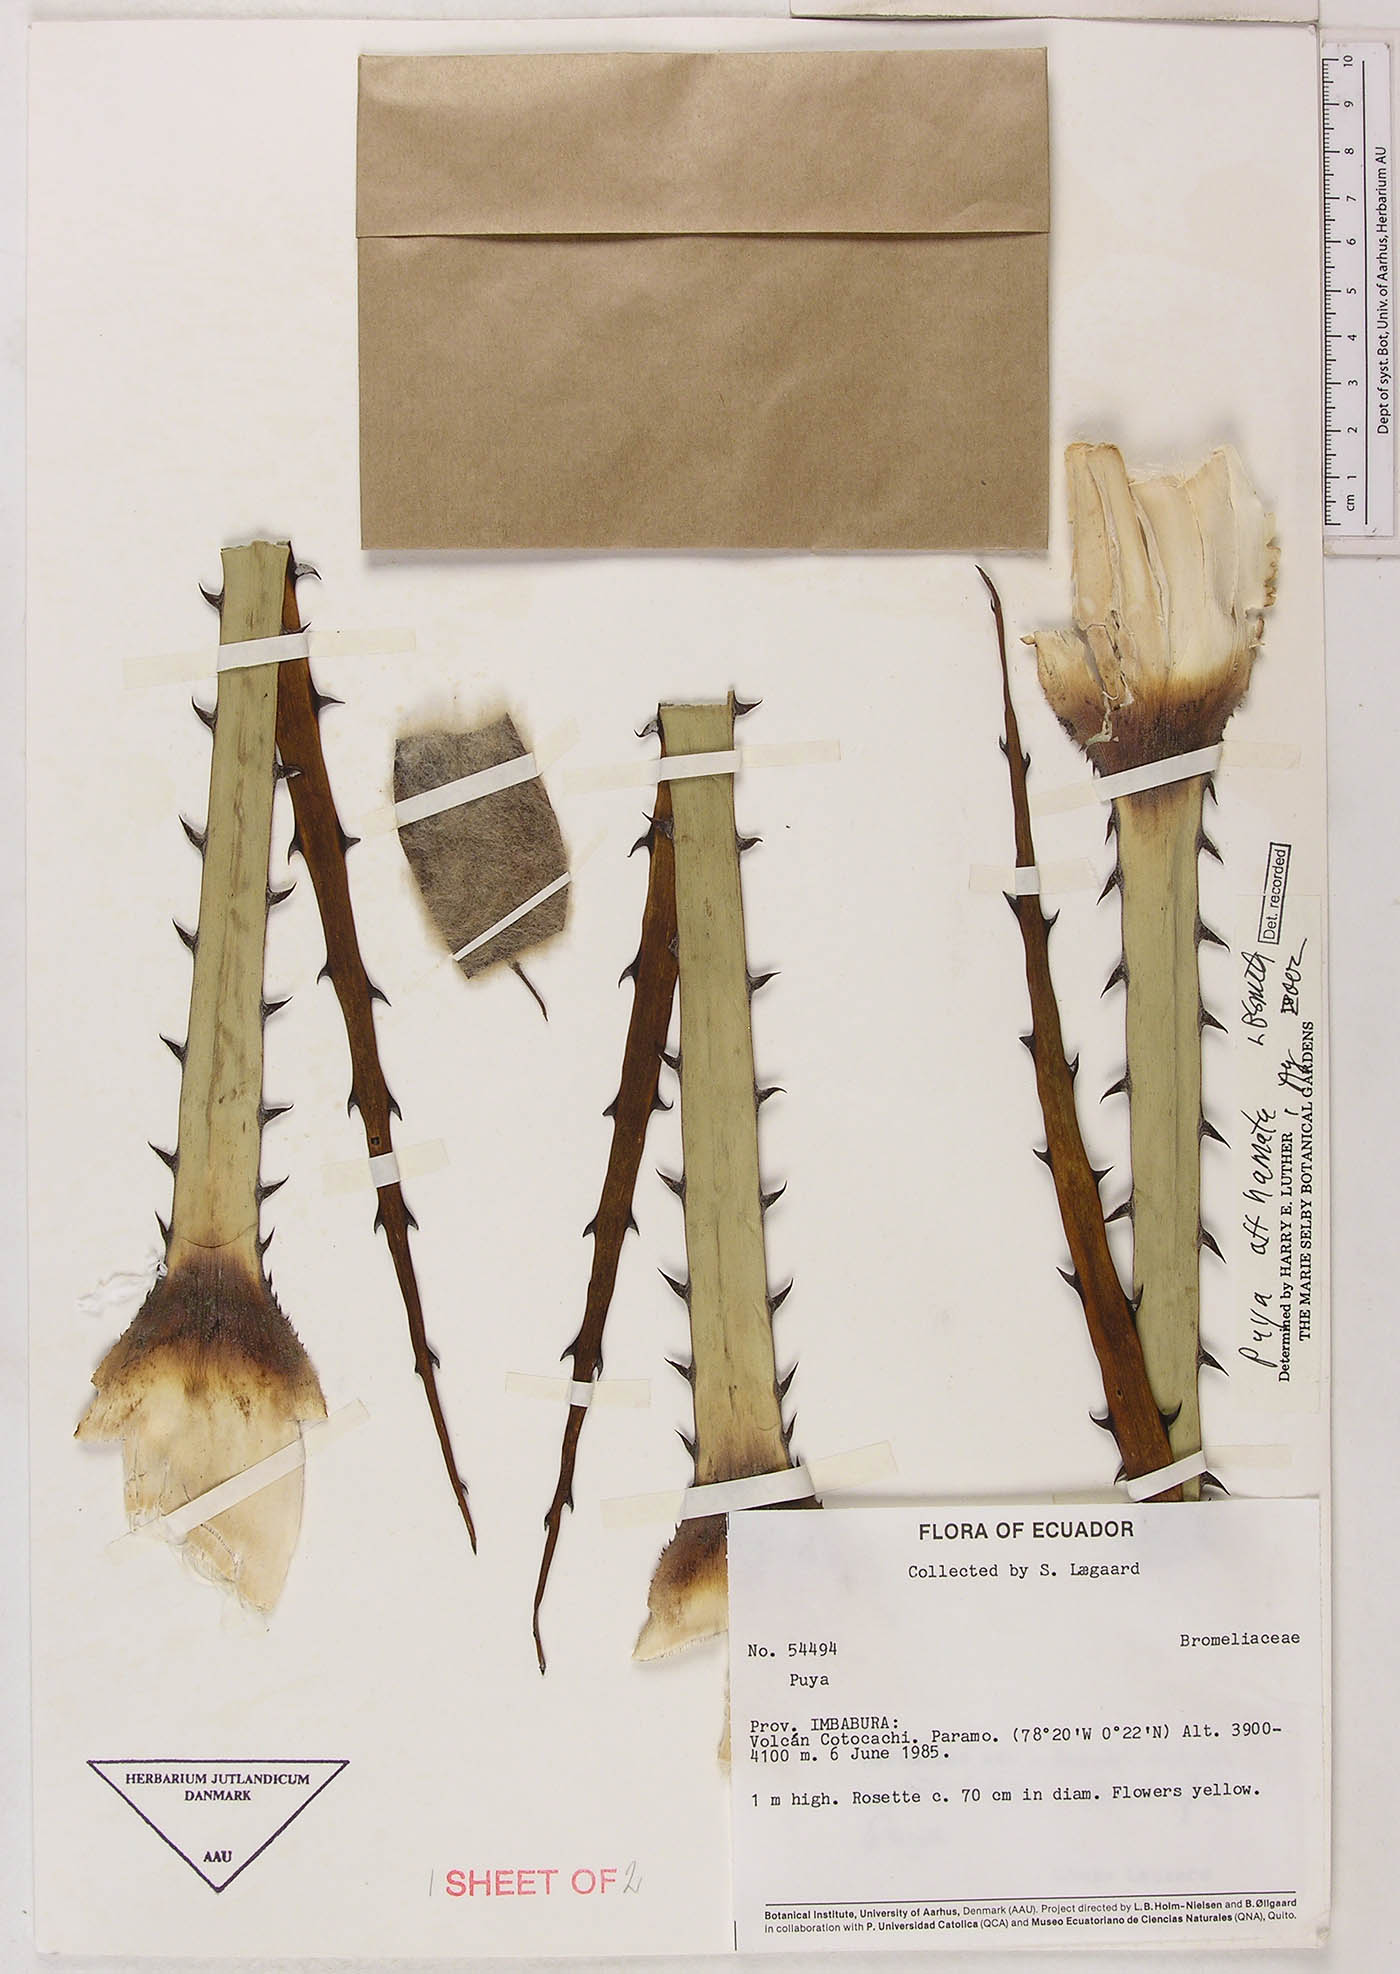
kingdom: Plantae
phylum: Tracheophyta
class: Liliopsida
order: Poales
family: Bromeliaceae
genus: Puya
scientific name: Puya hamata
